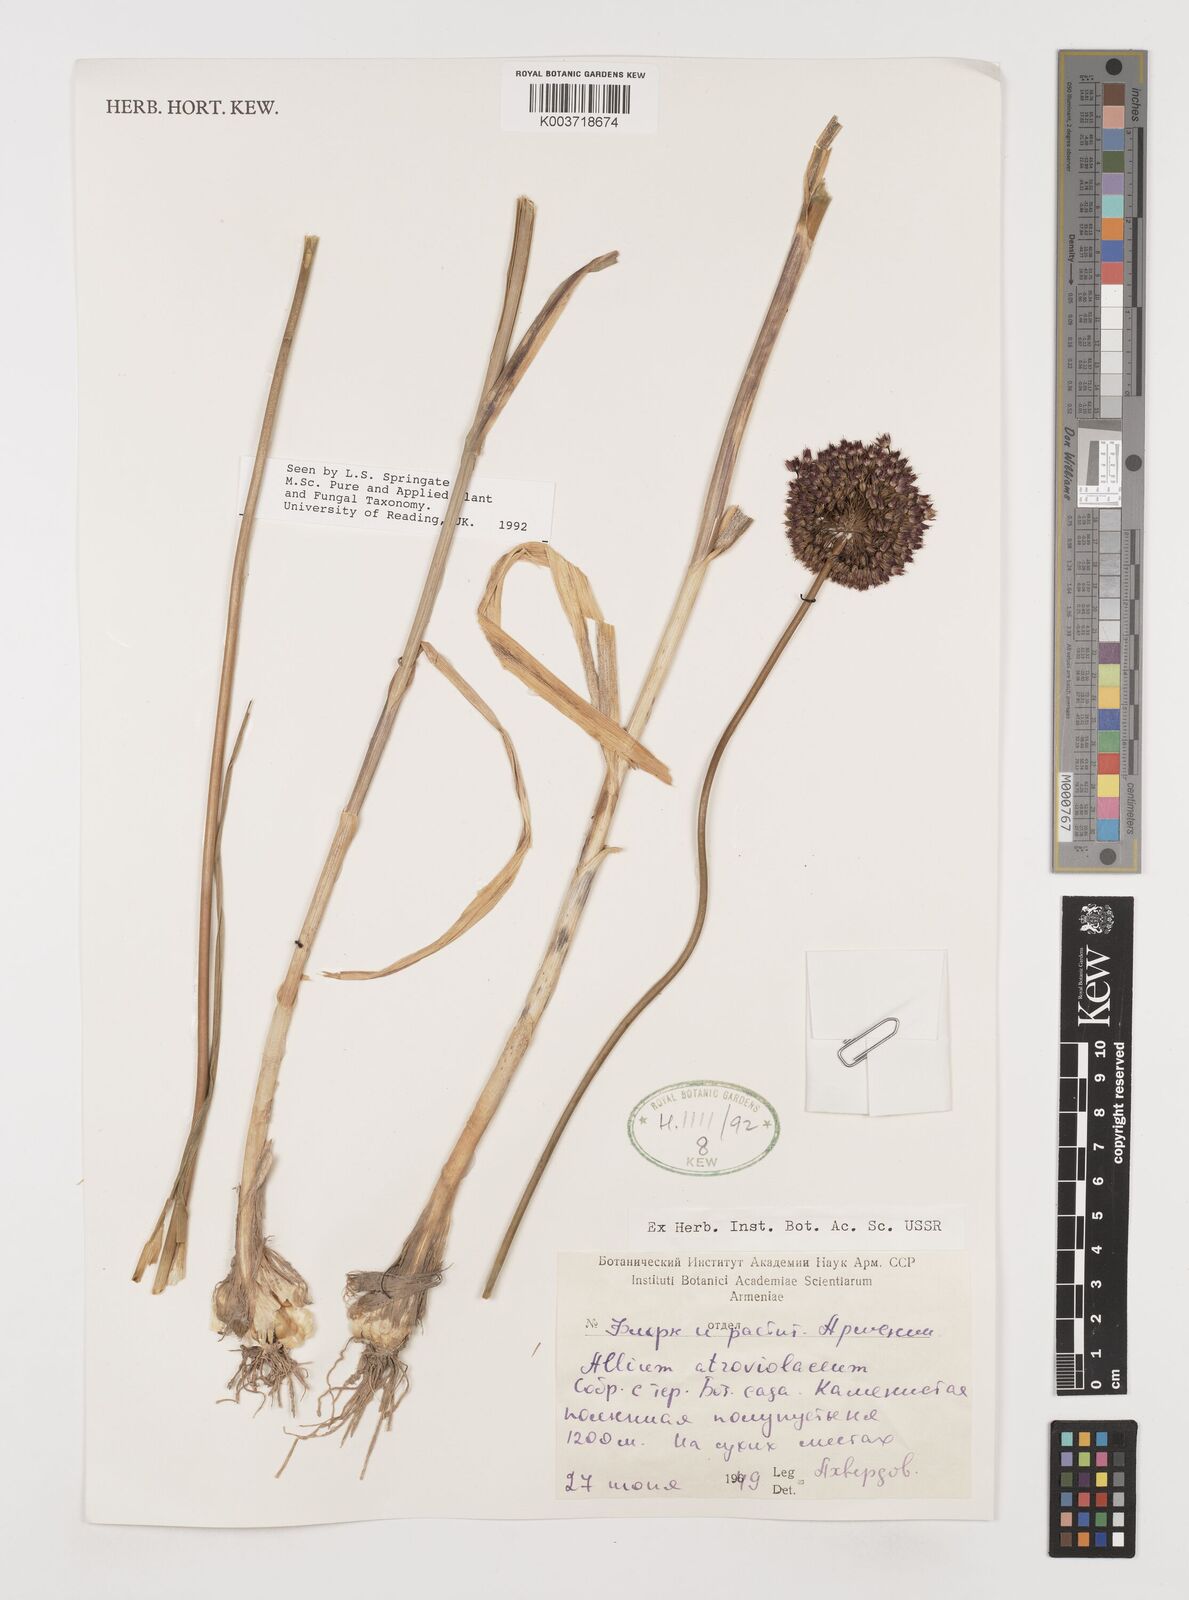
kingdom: Plantae
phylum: Tracheophyta
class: Liliopsida
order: Asparagales
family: Amaryllidaceae
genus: Allium
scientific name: Allium atroviolaceum
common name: Broadleaf wild leek
